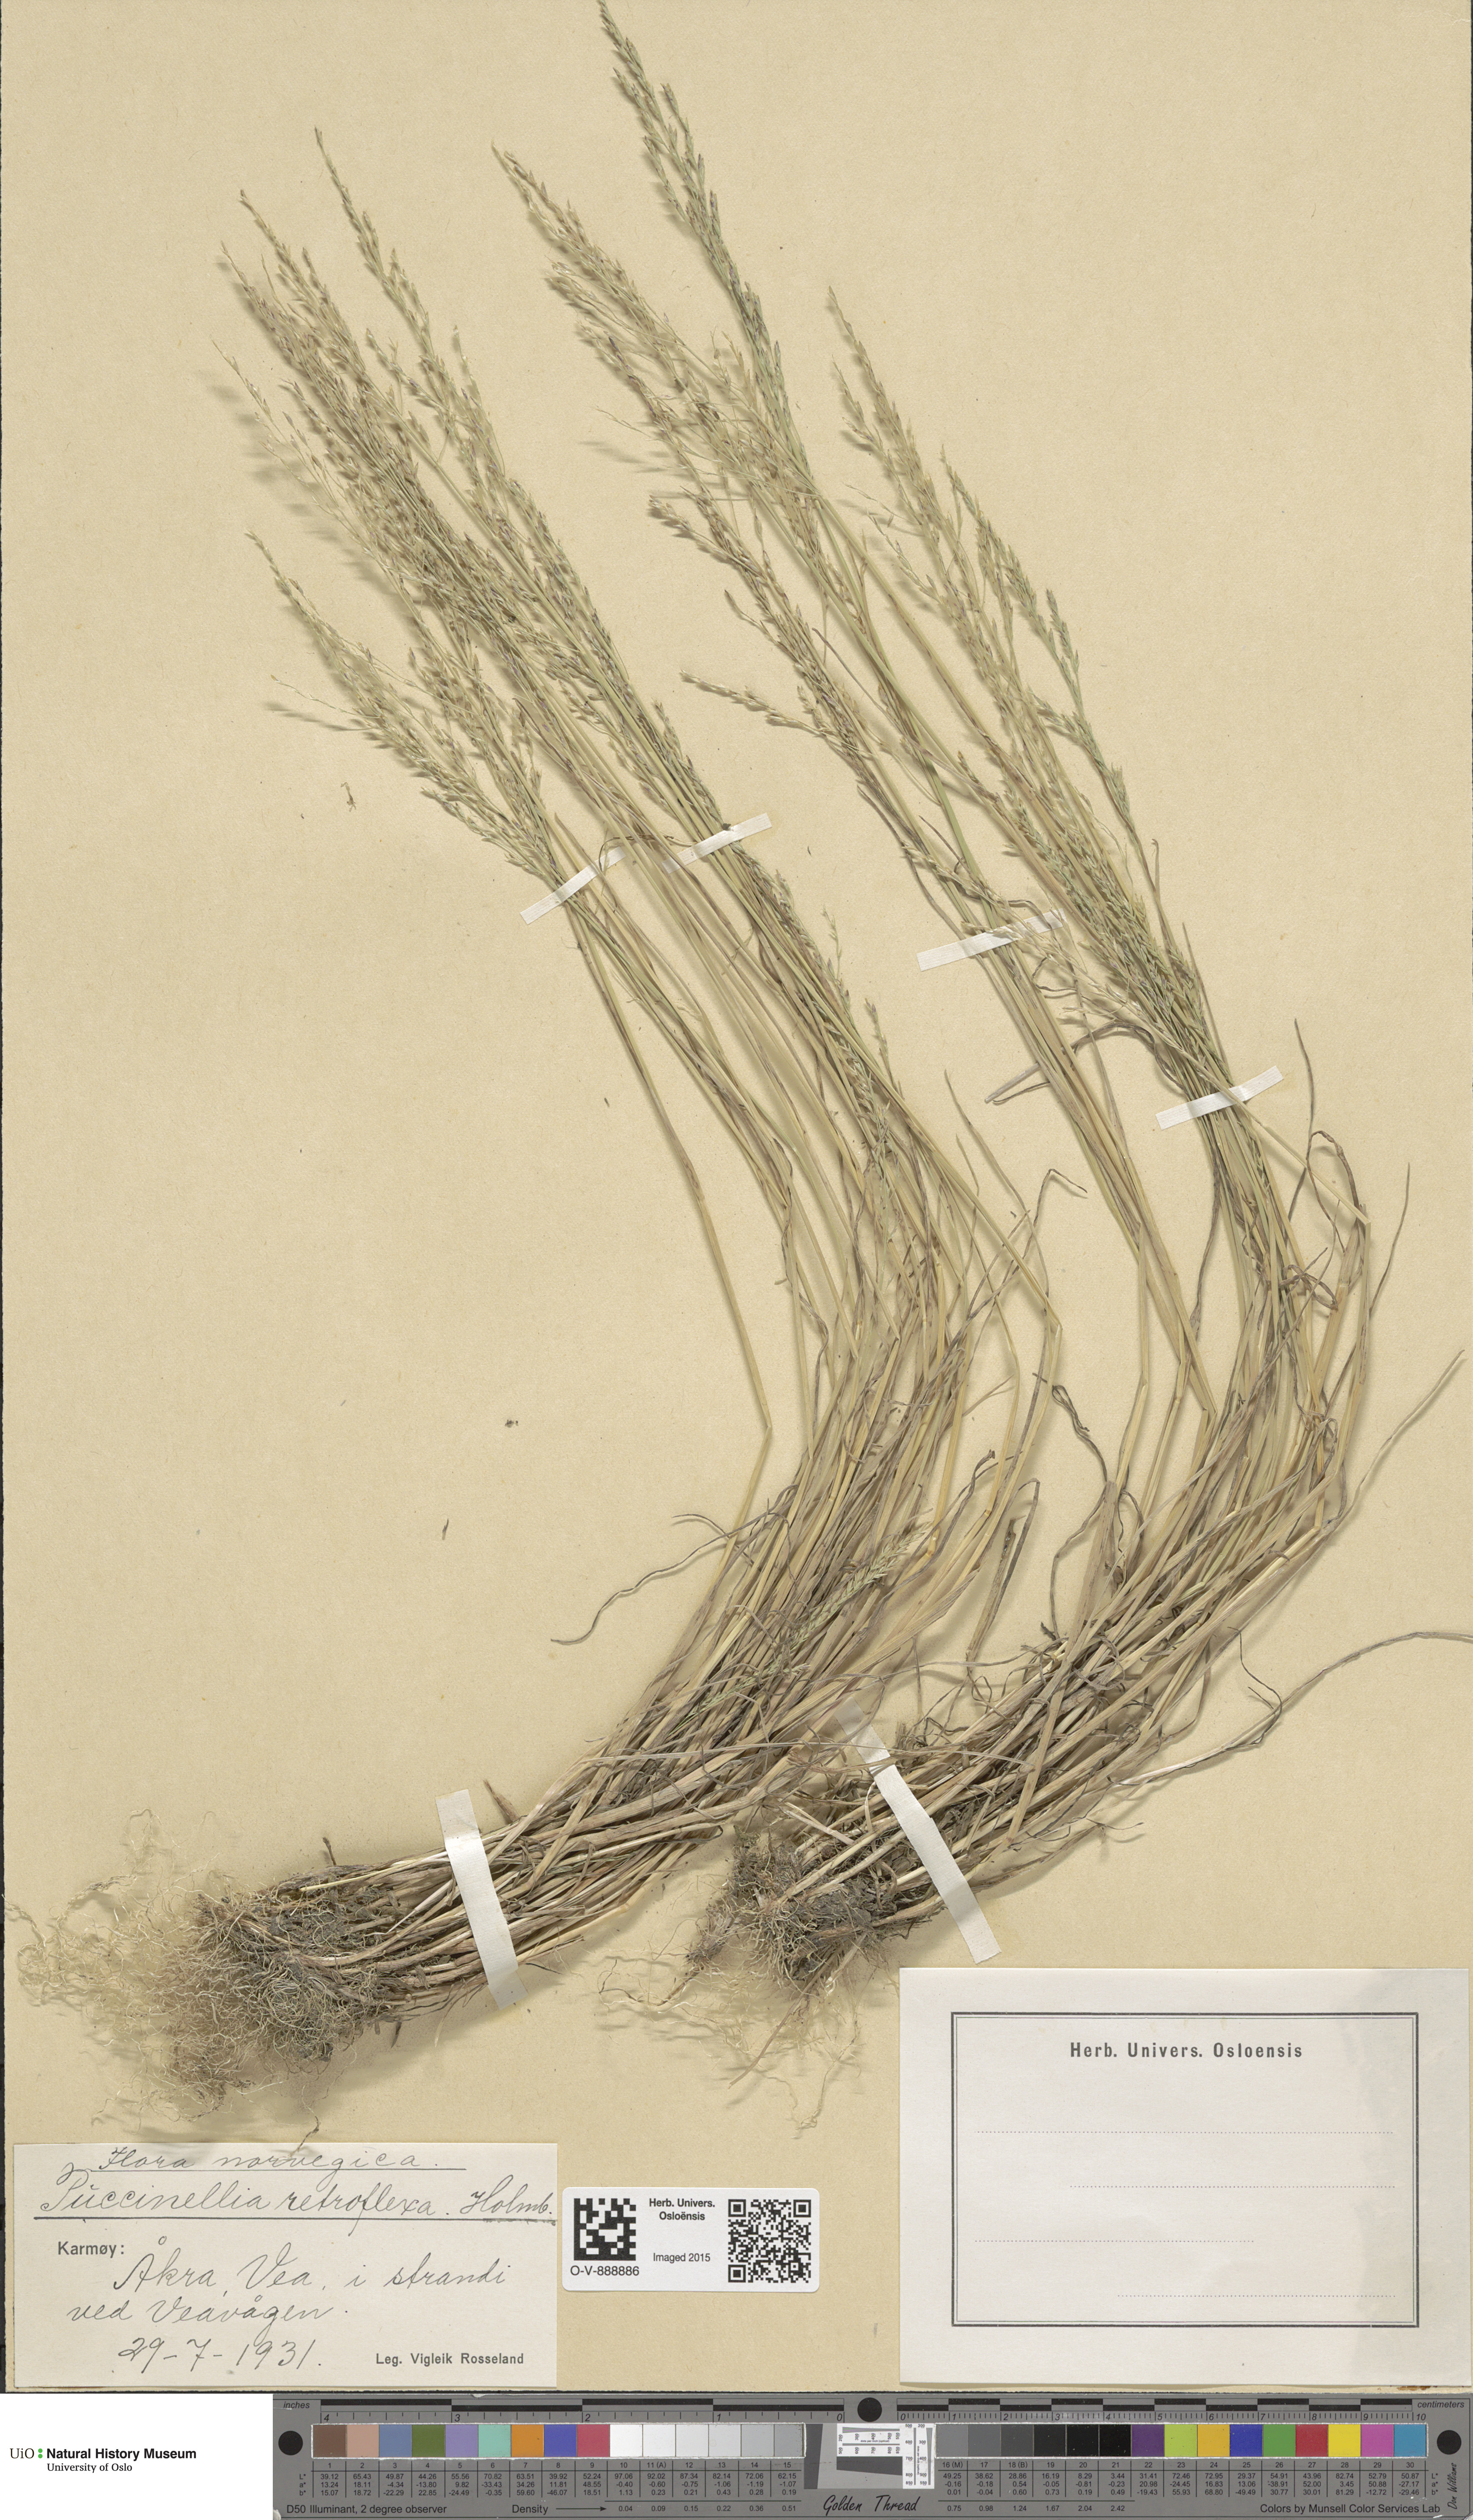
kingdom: Plantae
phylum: Tracheophyta
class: Liliopsida
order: Poales
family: Poaceae
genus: Puccinellia
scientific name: Puccinellia distans
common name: Weeping alkaligrass
